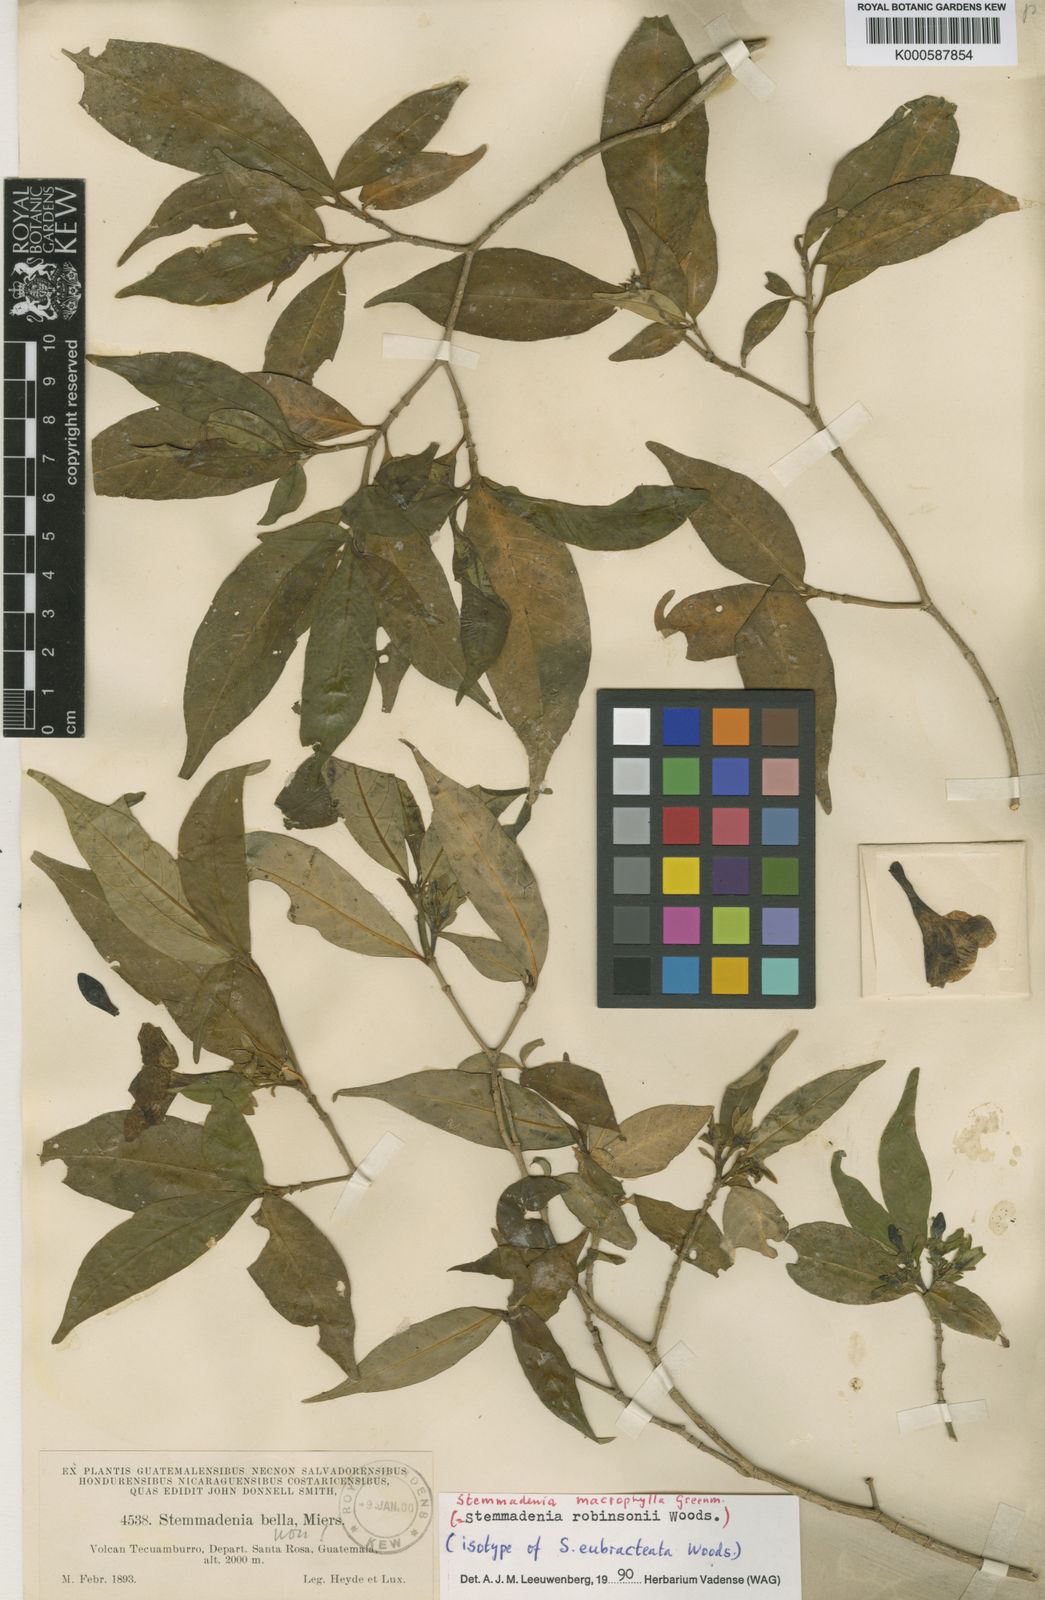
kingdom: Plantae
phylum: Tracheophyta
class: Magnoliopsida
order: Gentianales
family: Apocynaceae
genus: Tabernaemontana
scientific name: Tabernaemontana litoralis
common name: Milkwood
